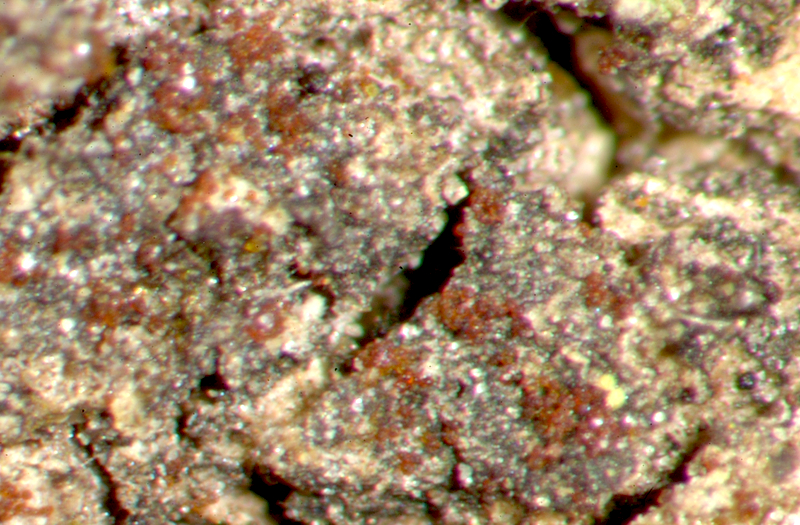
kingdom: Fungi
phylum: Ascomycota
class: Candelariomycetes
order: Candelariales
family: Candelariaceae
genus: Candelaria
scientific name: Candelaria concolor
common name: Candleflame lichen
